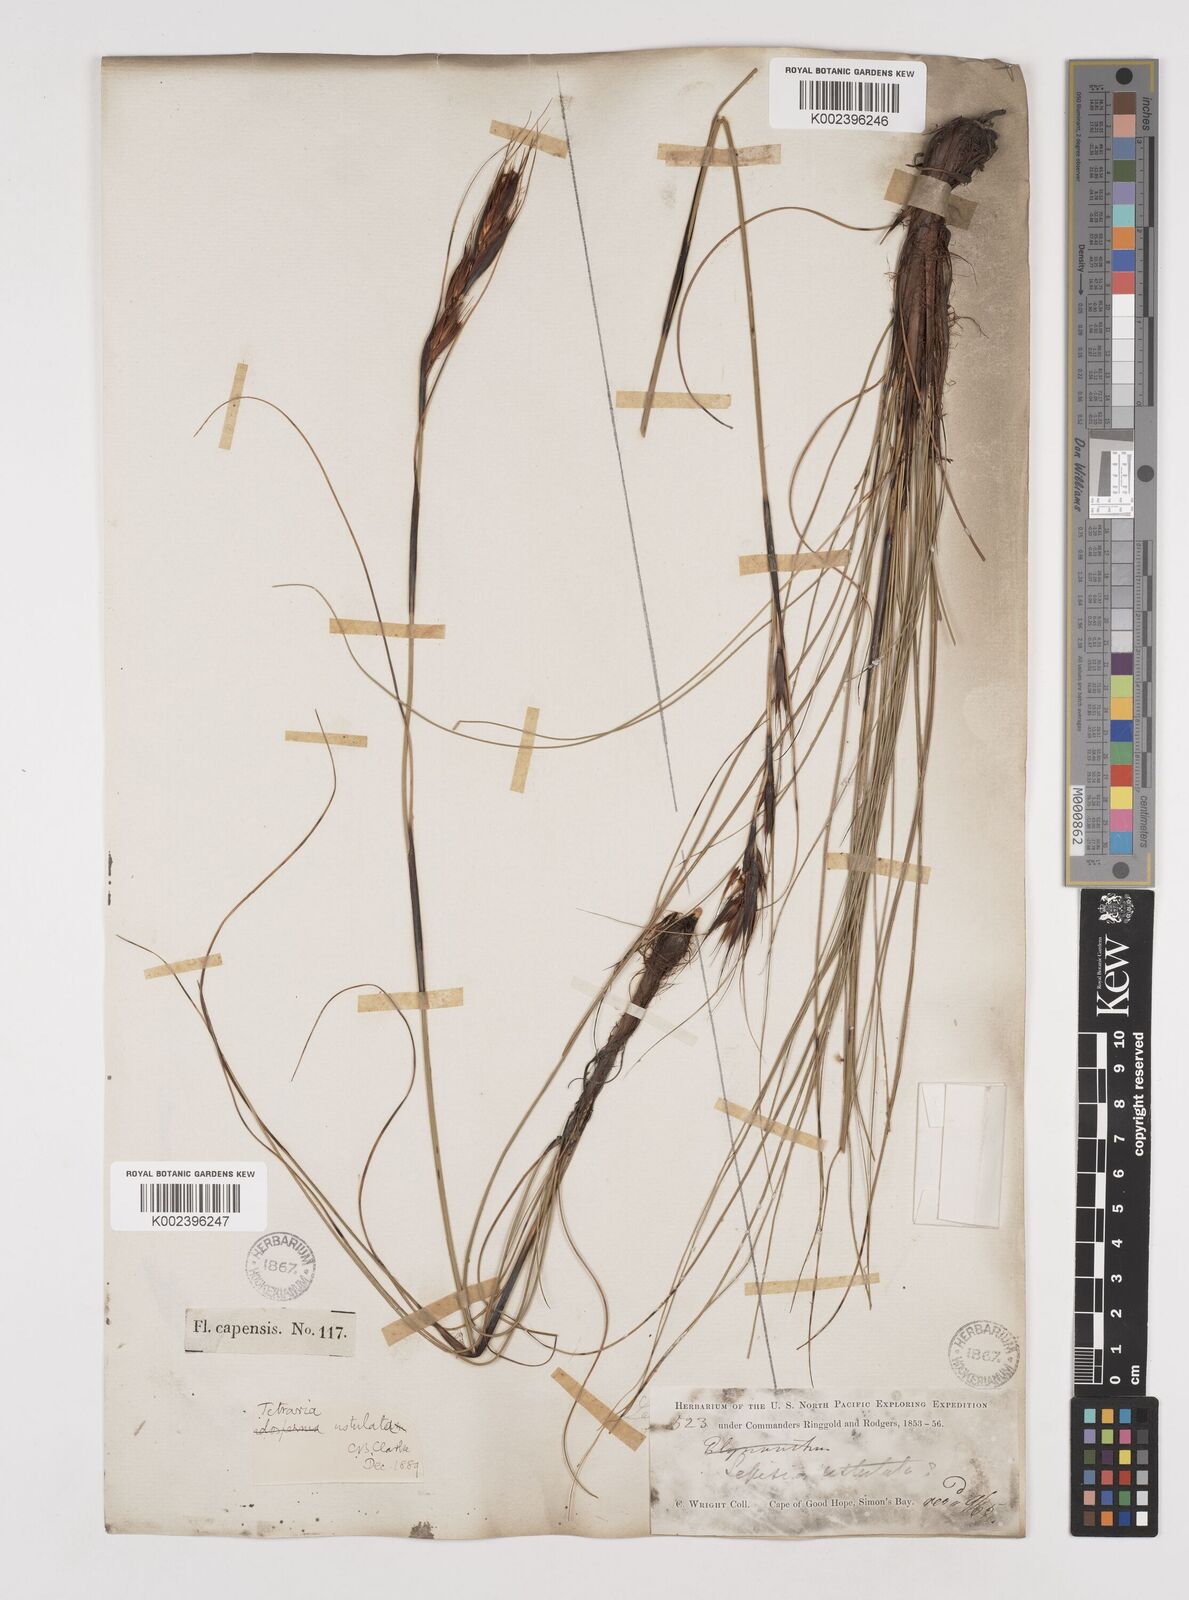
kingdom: Plantae
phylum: Tracheophyta
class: Liliopsida
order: Poales
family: Cyperaceae
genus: Tetraria
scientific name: Tetraria ustulata
